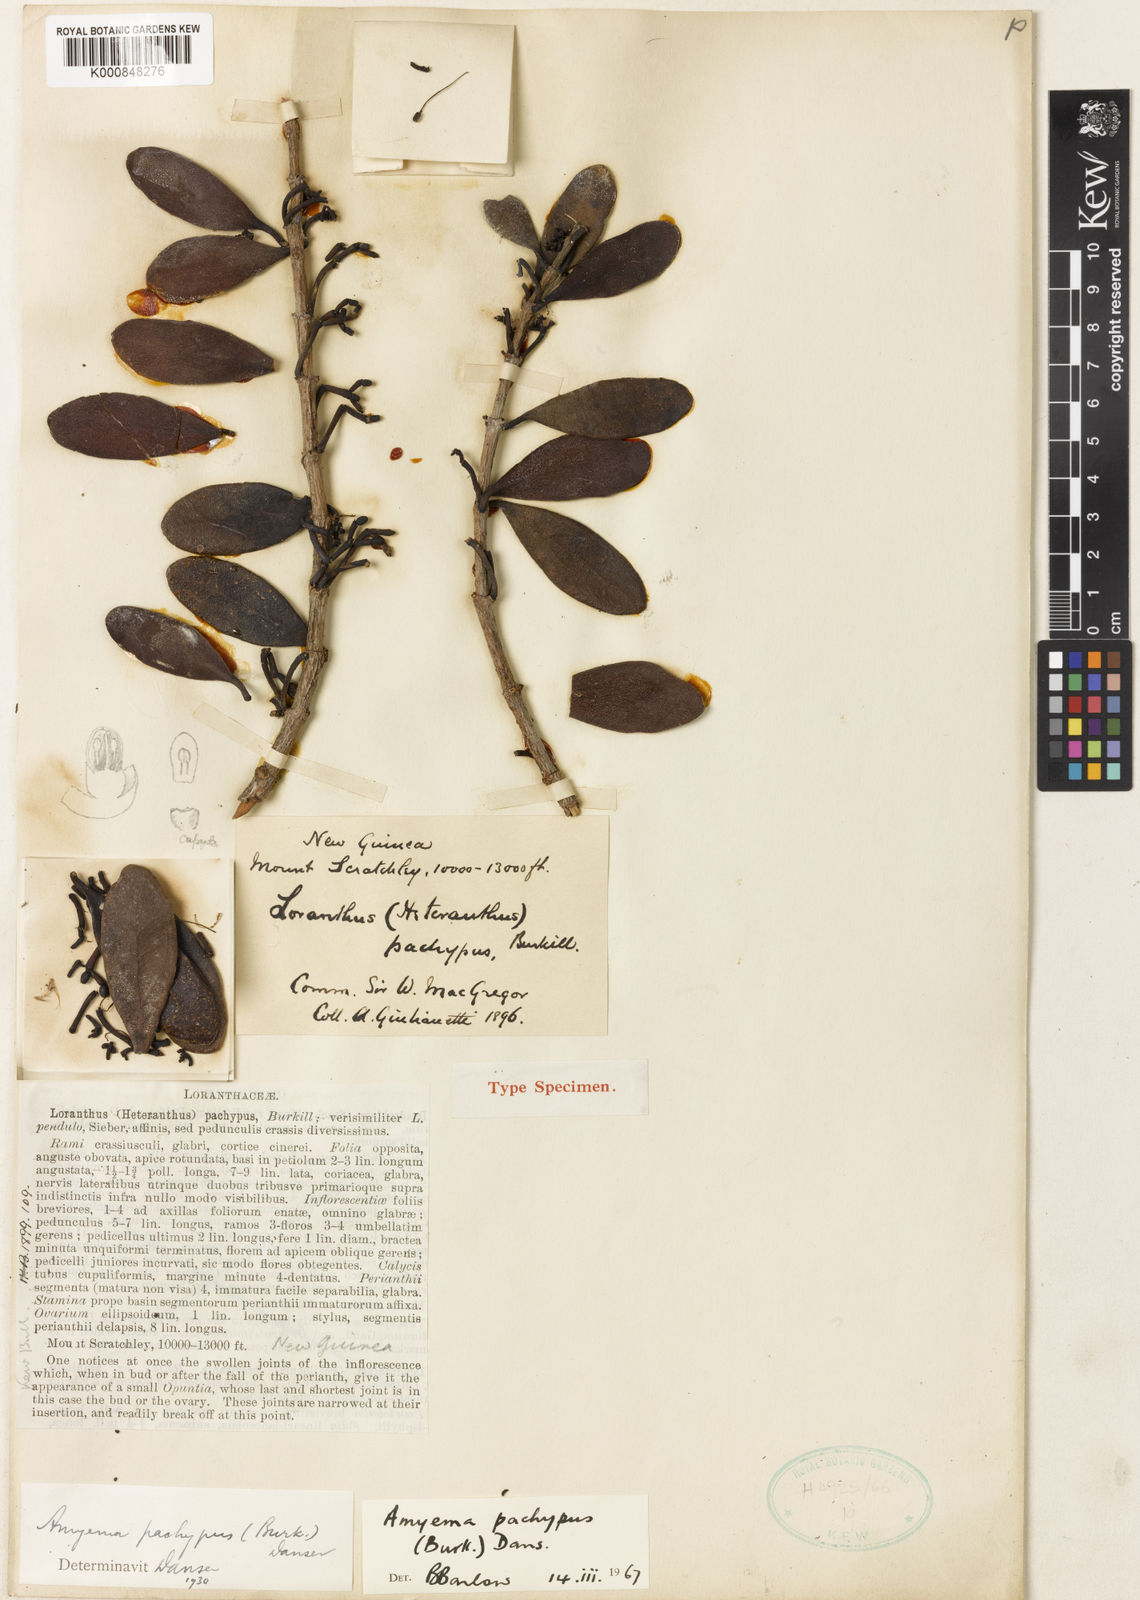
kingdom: Plantae
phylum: Tracheophyta
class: Magnoliopsida
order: Santalales
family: Loranthaceae
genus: Amyema
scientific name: Amyema pachypus
